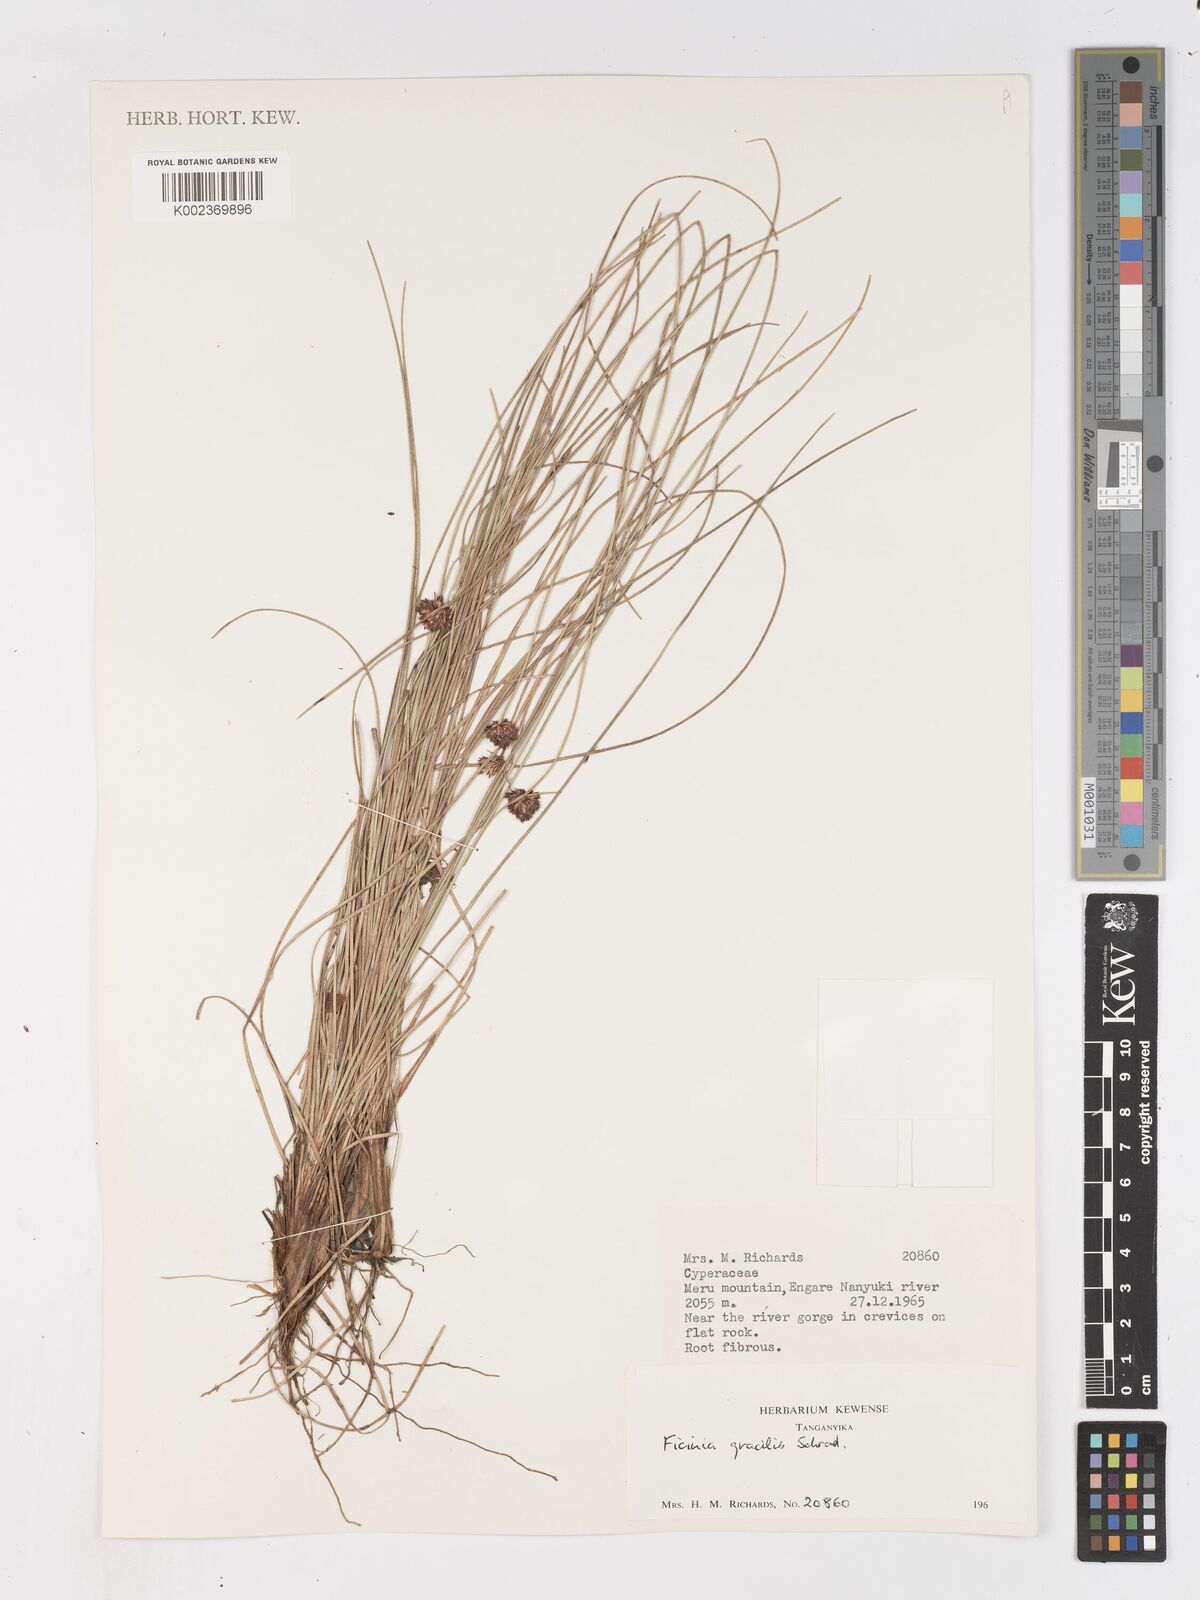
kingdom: Plantae
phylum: Tracheophyta
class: Liliopsida
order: Poales
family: Cyperaceae
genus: Ficinia
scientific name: Ficinia gracilis
